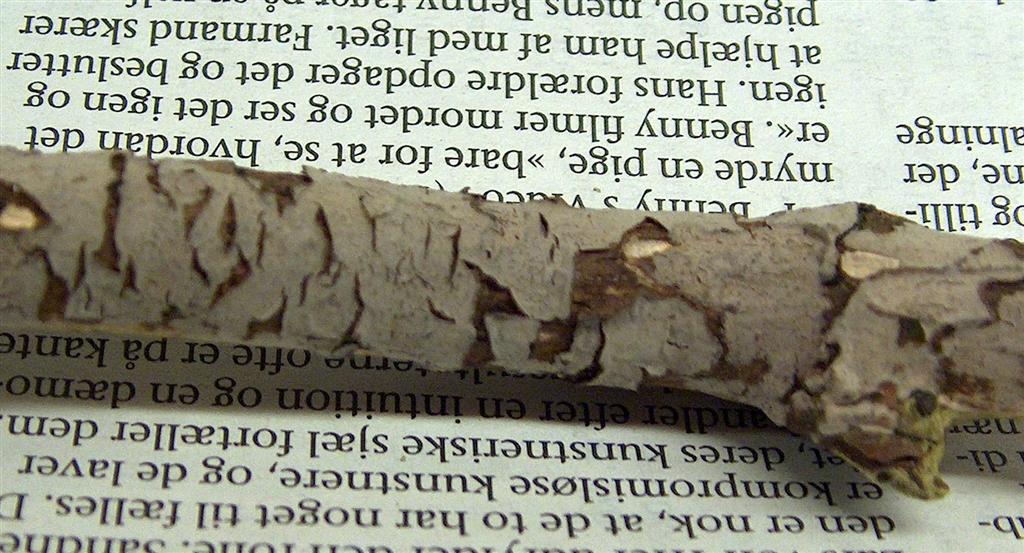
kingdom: Fungi
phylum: Basidiomycota
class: Agaricomycetes
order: Russulales
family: Peniophoraceae
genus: Peniophora
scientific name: Peniophora cinerea
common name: grå voksskind
